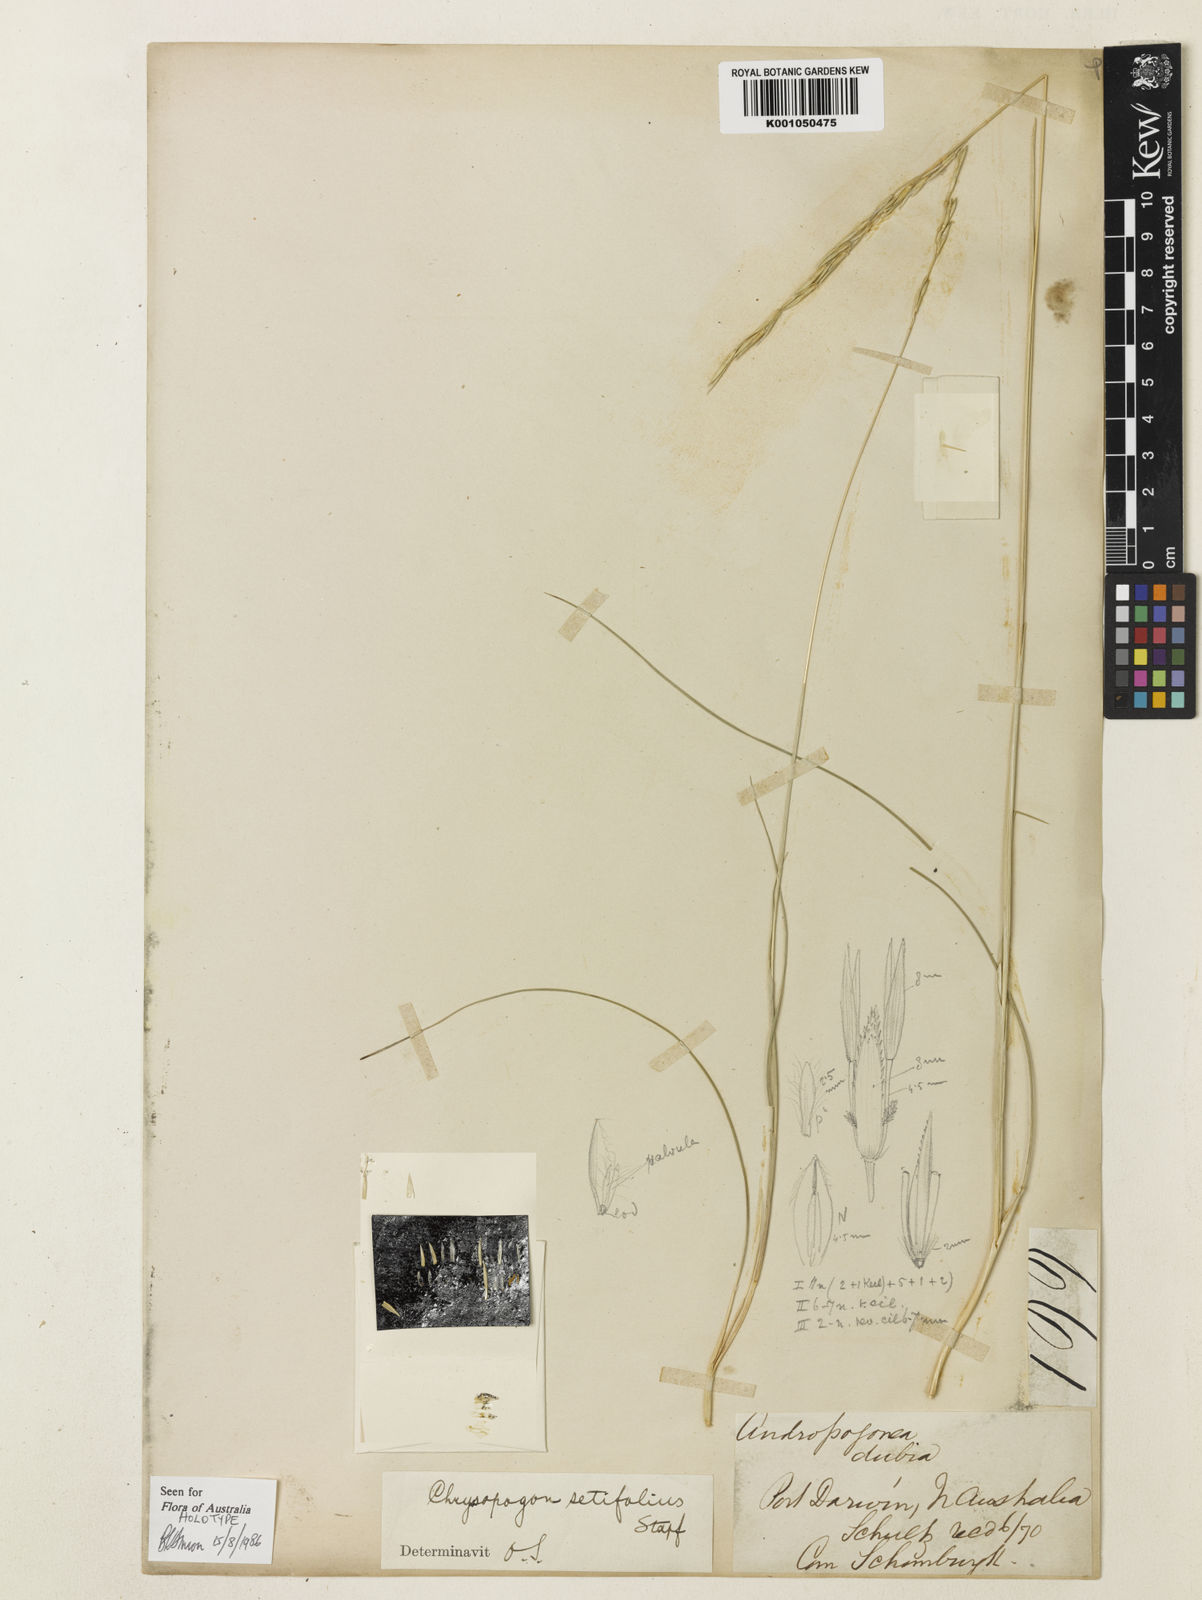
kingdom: Plantae
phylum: Tracheophyta
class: Liliopsida
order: Poales
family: Poaceae
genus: Chrysopogon
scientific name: Chrysopogon setifolius
